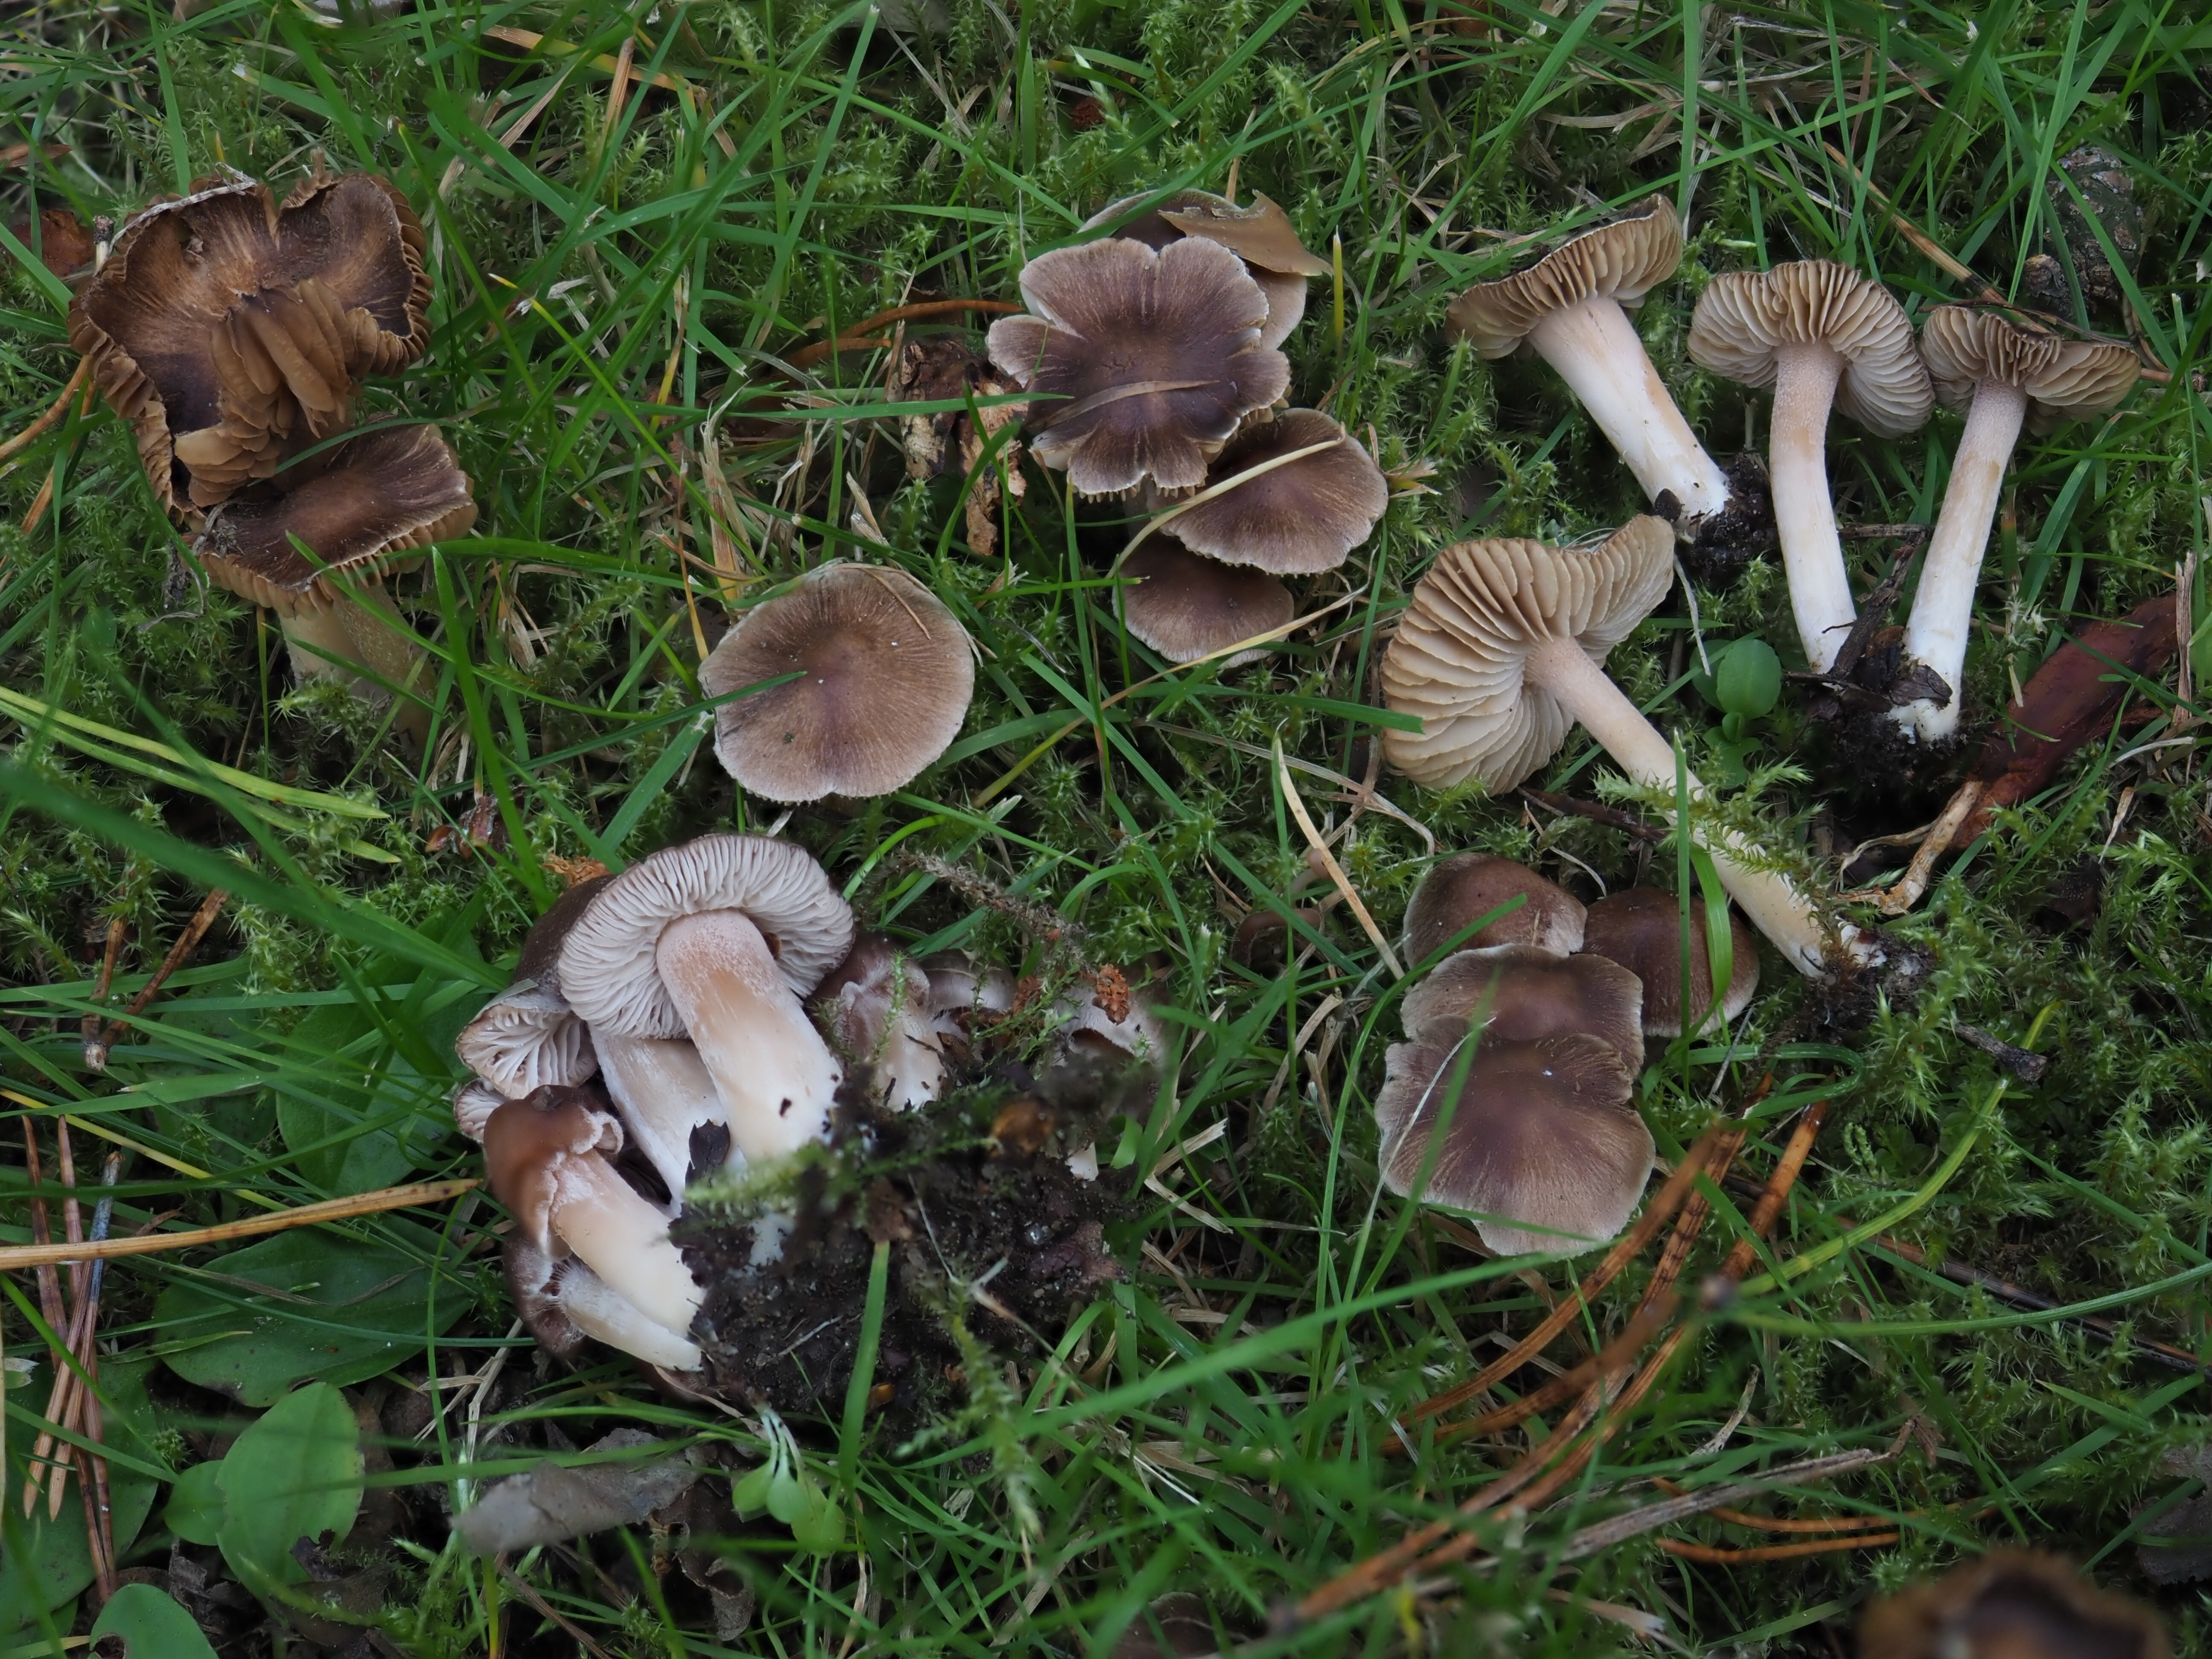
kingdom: Fungi
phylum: Basidiomycota
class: Agaricomycetes
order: Agaricales
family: Inocybaceae
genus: Inocybe
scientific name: Inocybe
